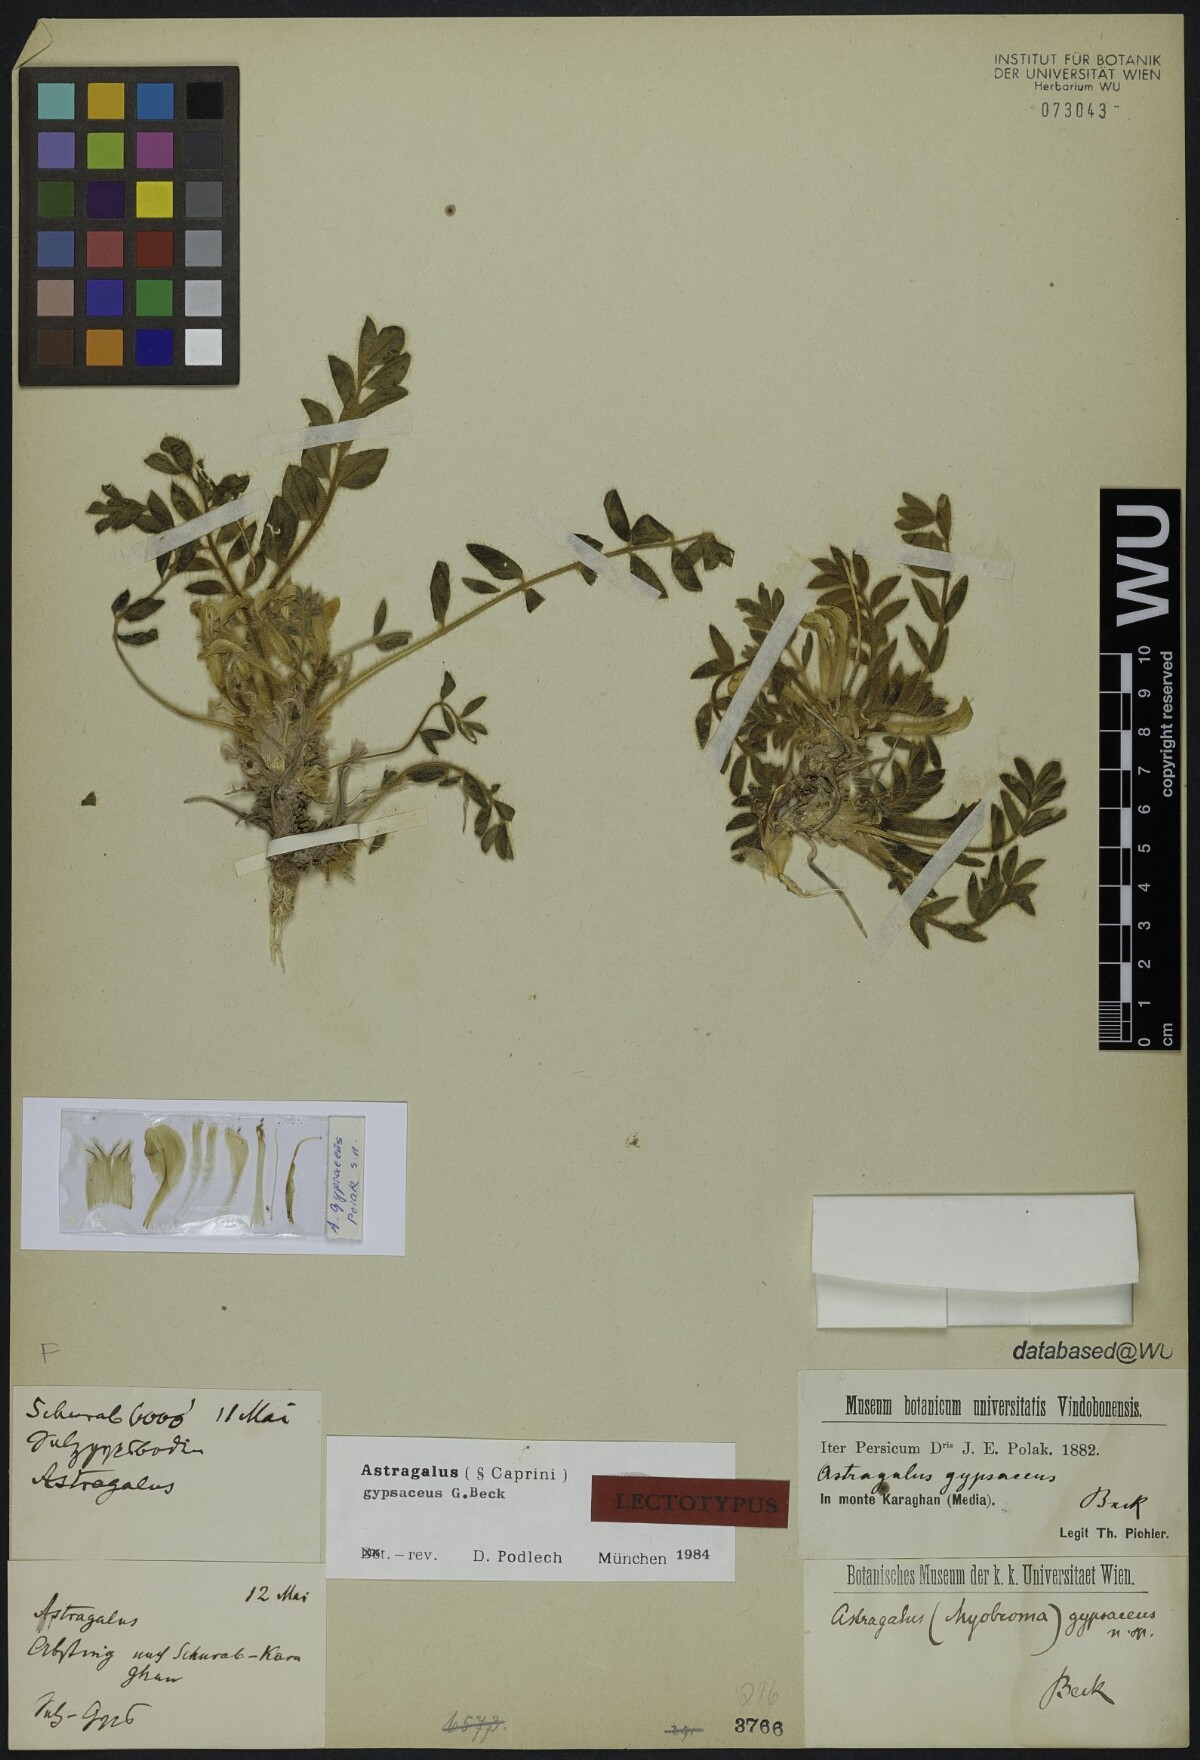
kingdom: Plantae
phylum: Tracheophyta
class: Magnoliopsida
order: Fabales
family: Fabaceae
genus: Astragalus
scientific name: Astragalus gypsaceus
